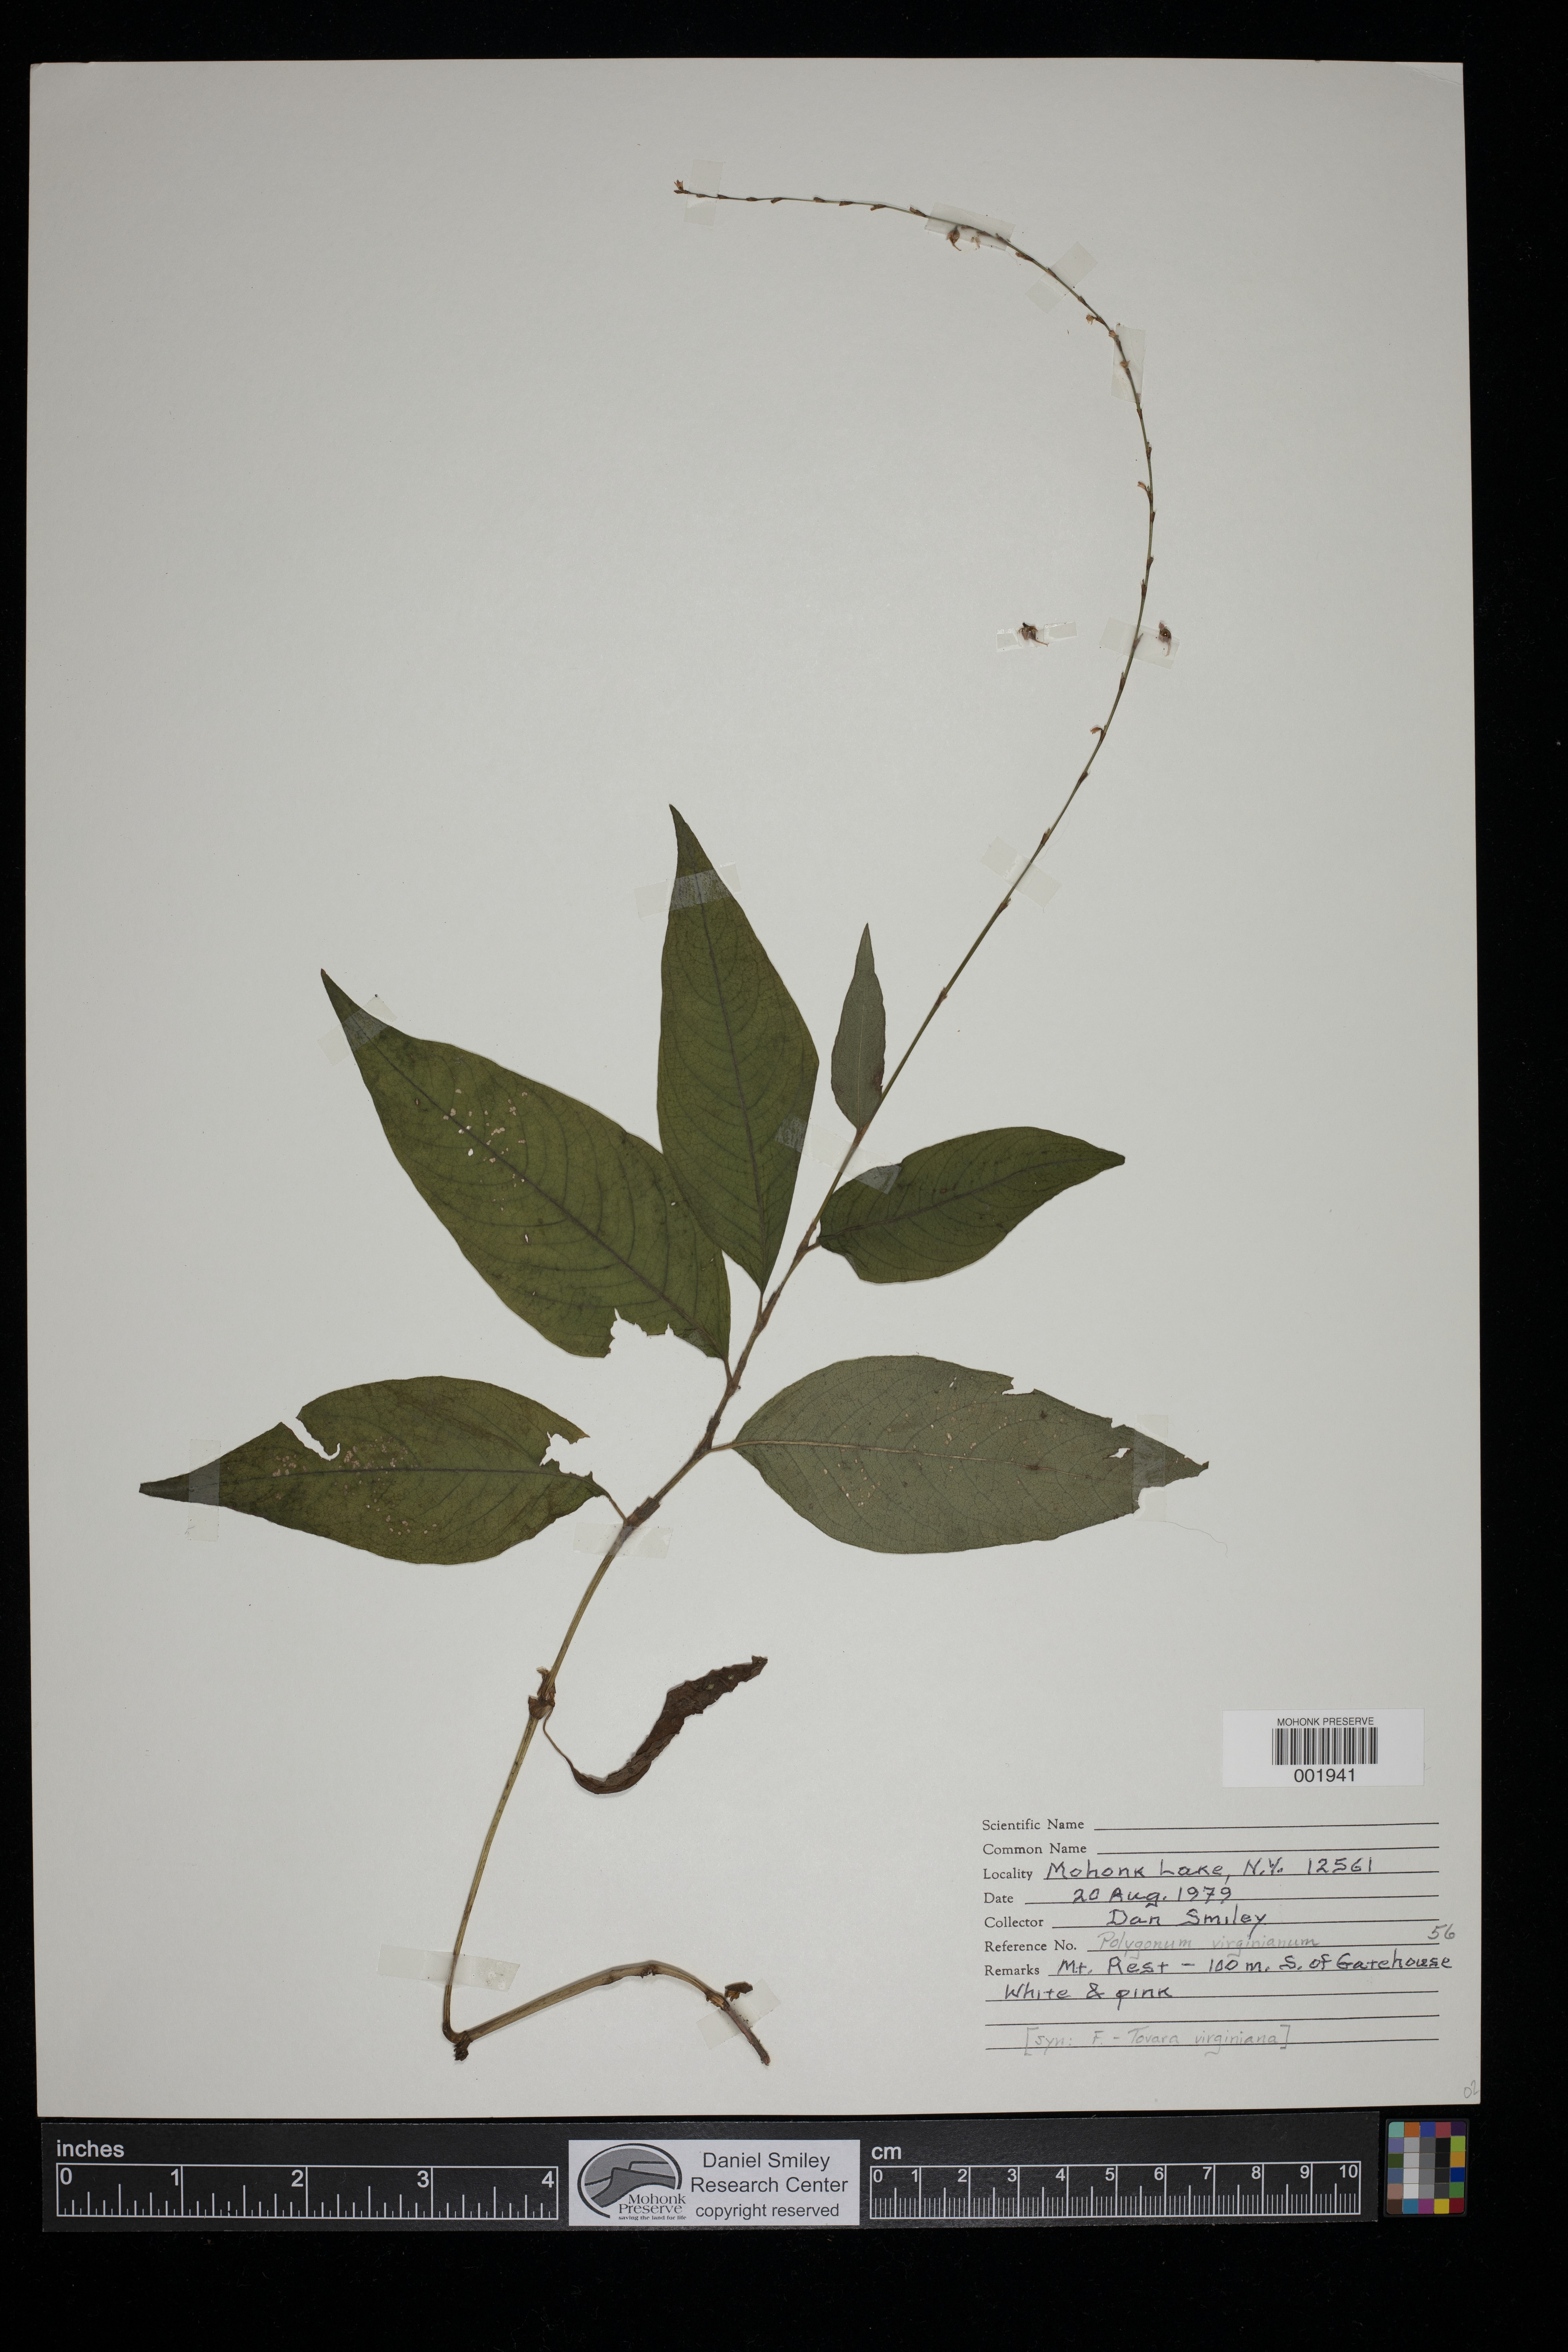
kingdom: Plantae
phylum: Tracheophyta
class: Magnoliopsida
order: Caryophyllales
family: Polygonaceae
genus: Persicaria
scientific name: Persicaria virginiana
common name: Jumpseed
